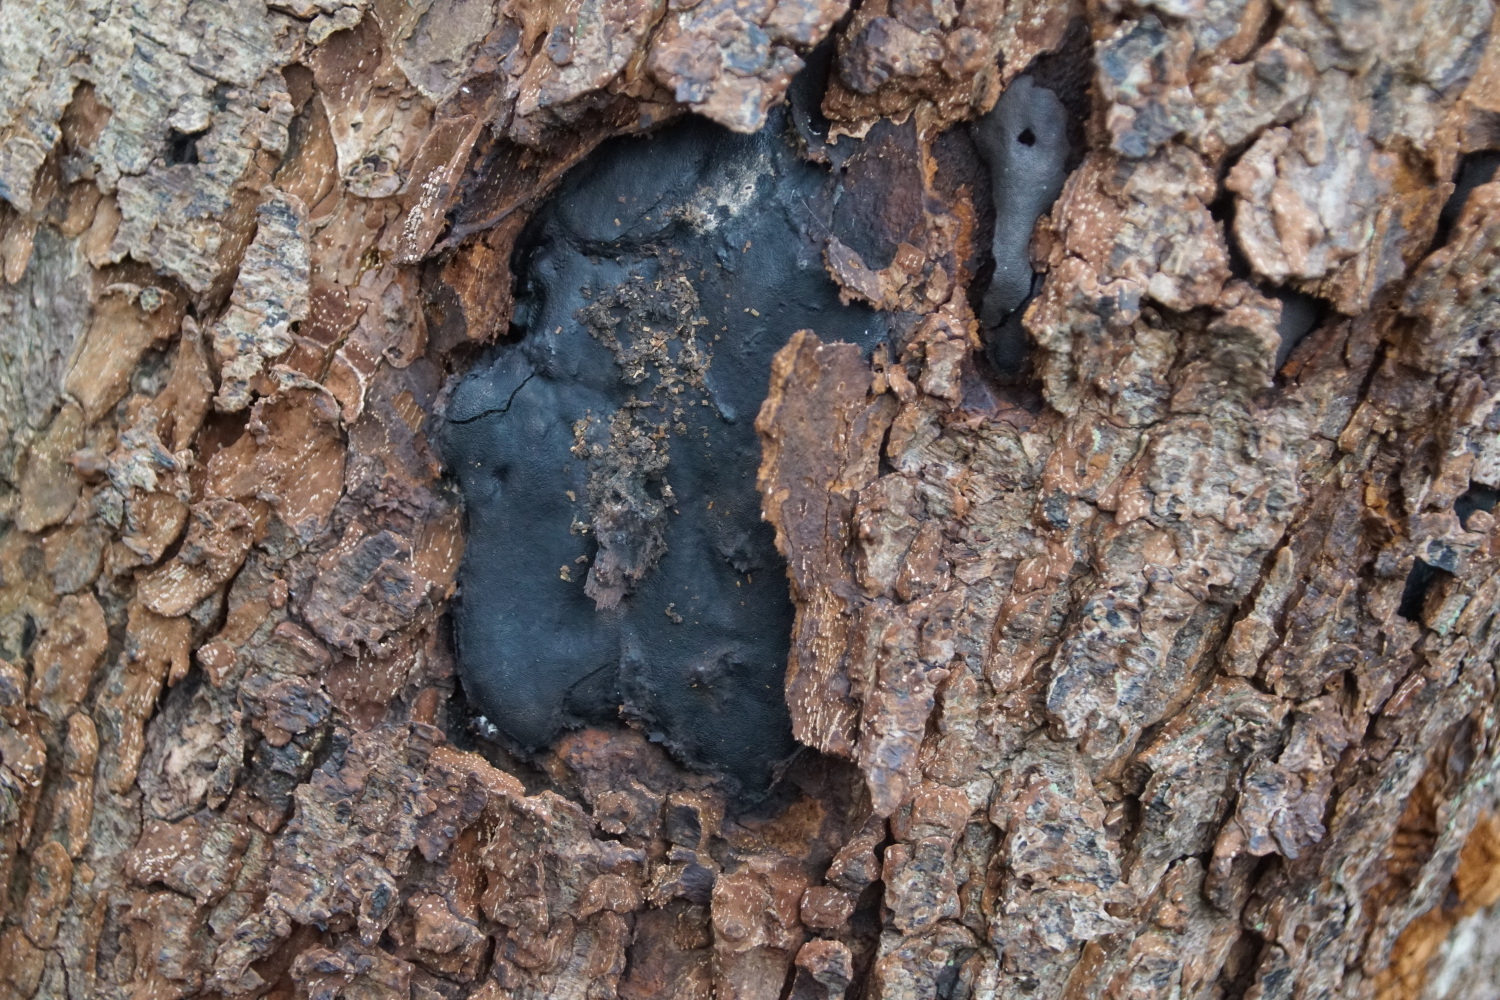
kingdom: Fungi
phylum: Ascomycota
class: Sordariomycetes
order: Boliniales
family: Boliniaceae
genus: Camarops
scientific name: Camarops polysperma
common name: elle-kulsnegl
